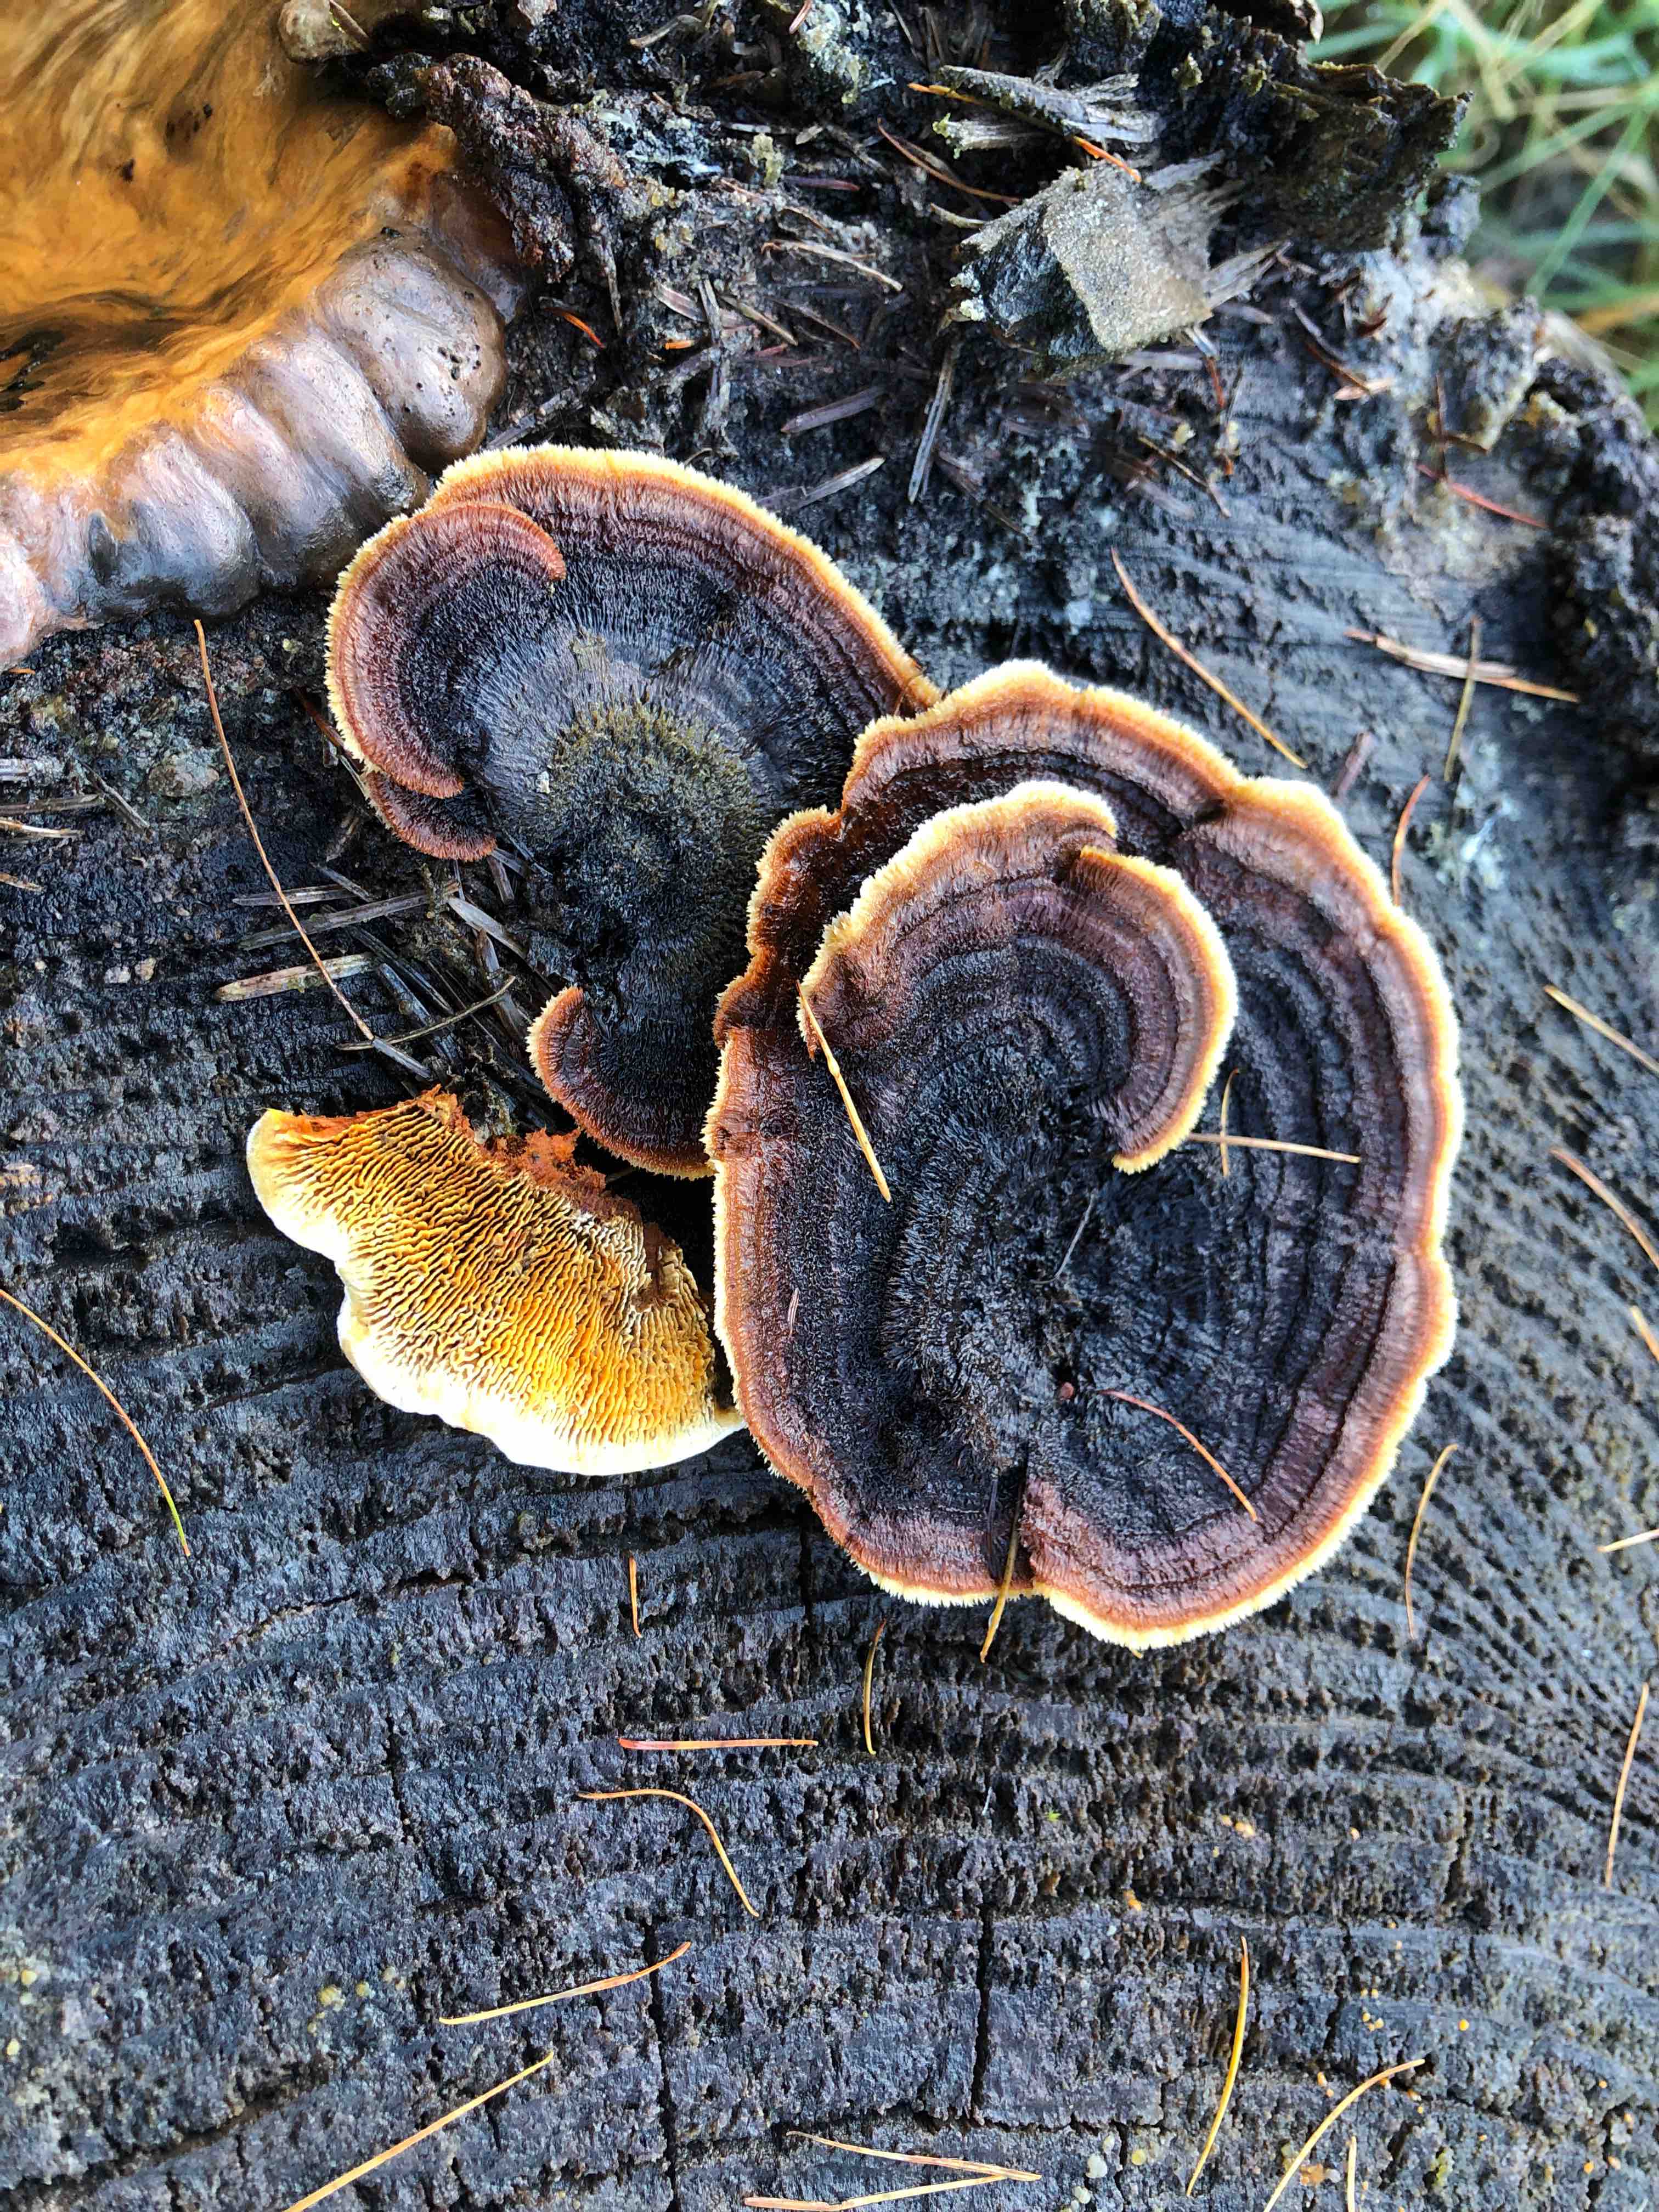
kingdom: Fungi
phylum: Basidiomycota
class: Agaricomycetes
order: Gloeophyllales
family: Gloeophyllaceae
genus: Gloeophyllum
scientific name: Gloeophyllum sepiarium
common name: fyrre-korkhat
